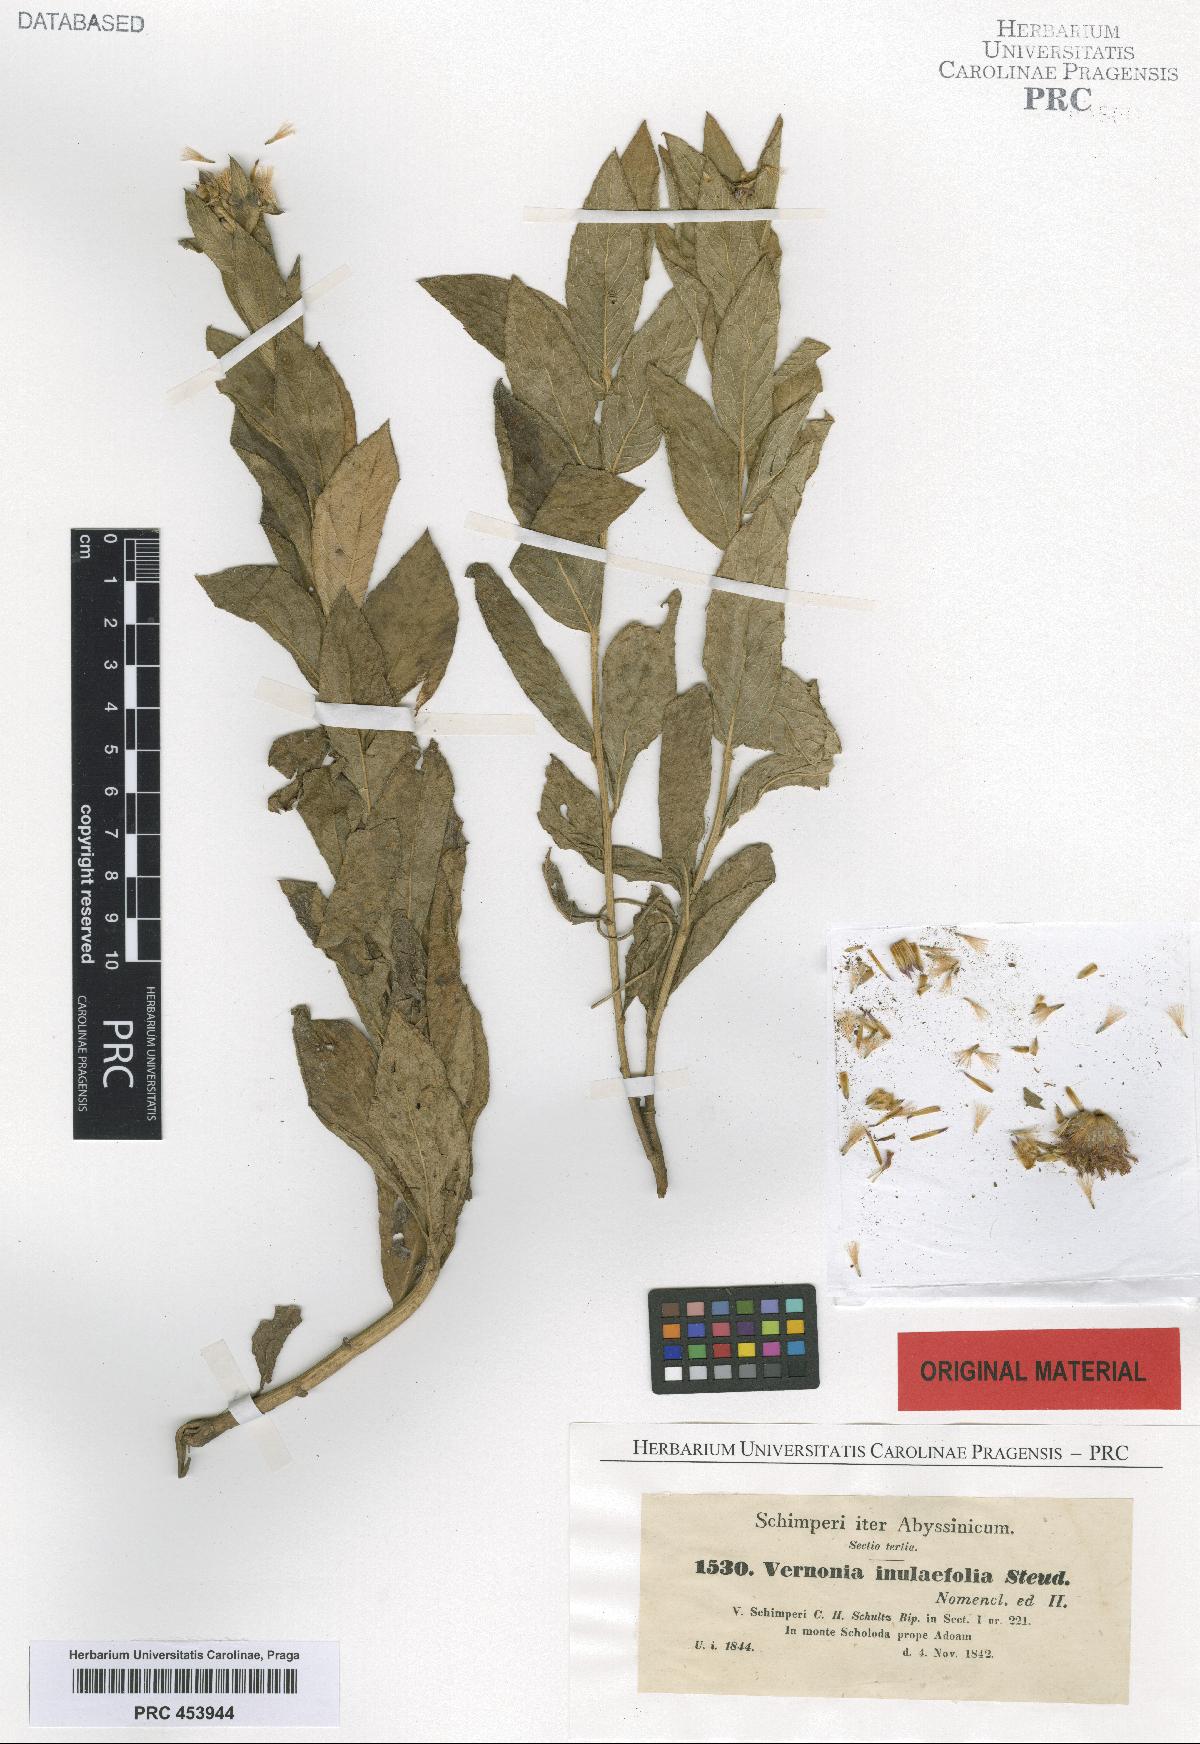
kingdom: Plantae
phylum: Tracheophyta
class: Magnoliopsida
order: Asterales
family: Asteraceae
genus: Nothovernonia
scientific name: Nothovernonia purpurea
